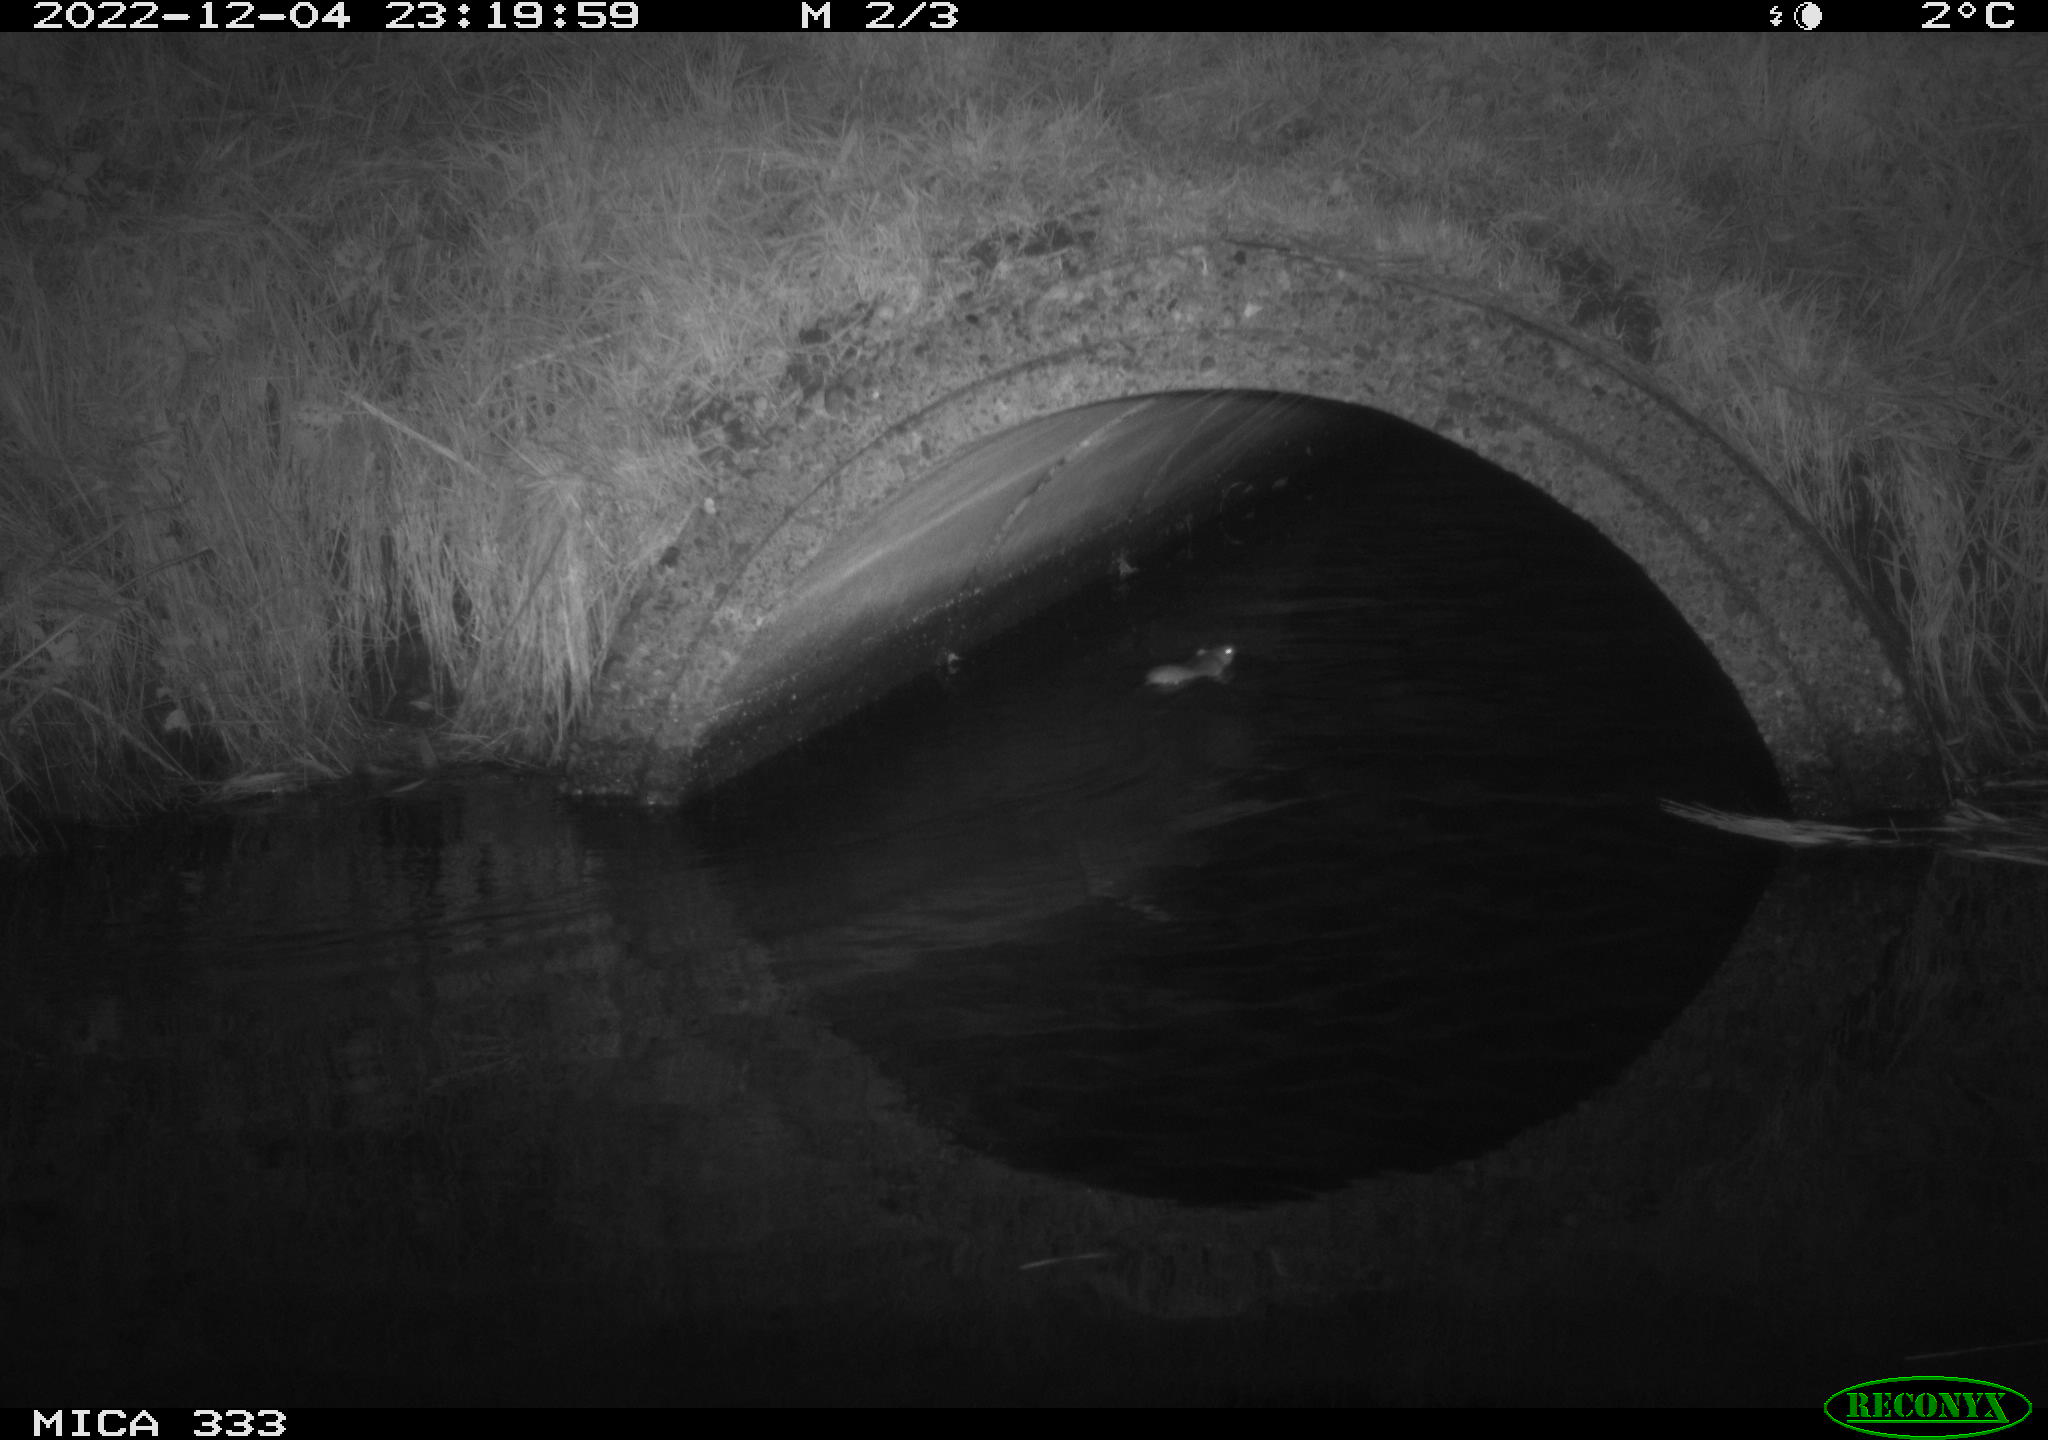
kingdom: Animalia
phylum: Chordata
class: Mammalia
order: Rodentia
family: Muridae
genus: Rattus
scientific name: Rattus norvegicus
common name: Brown rat
